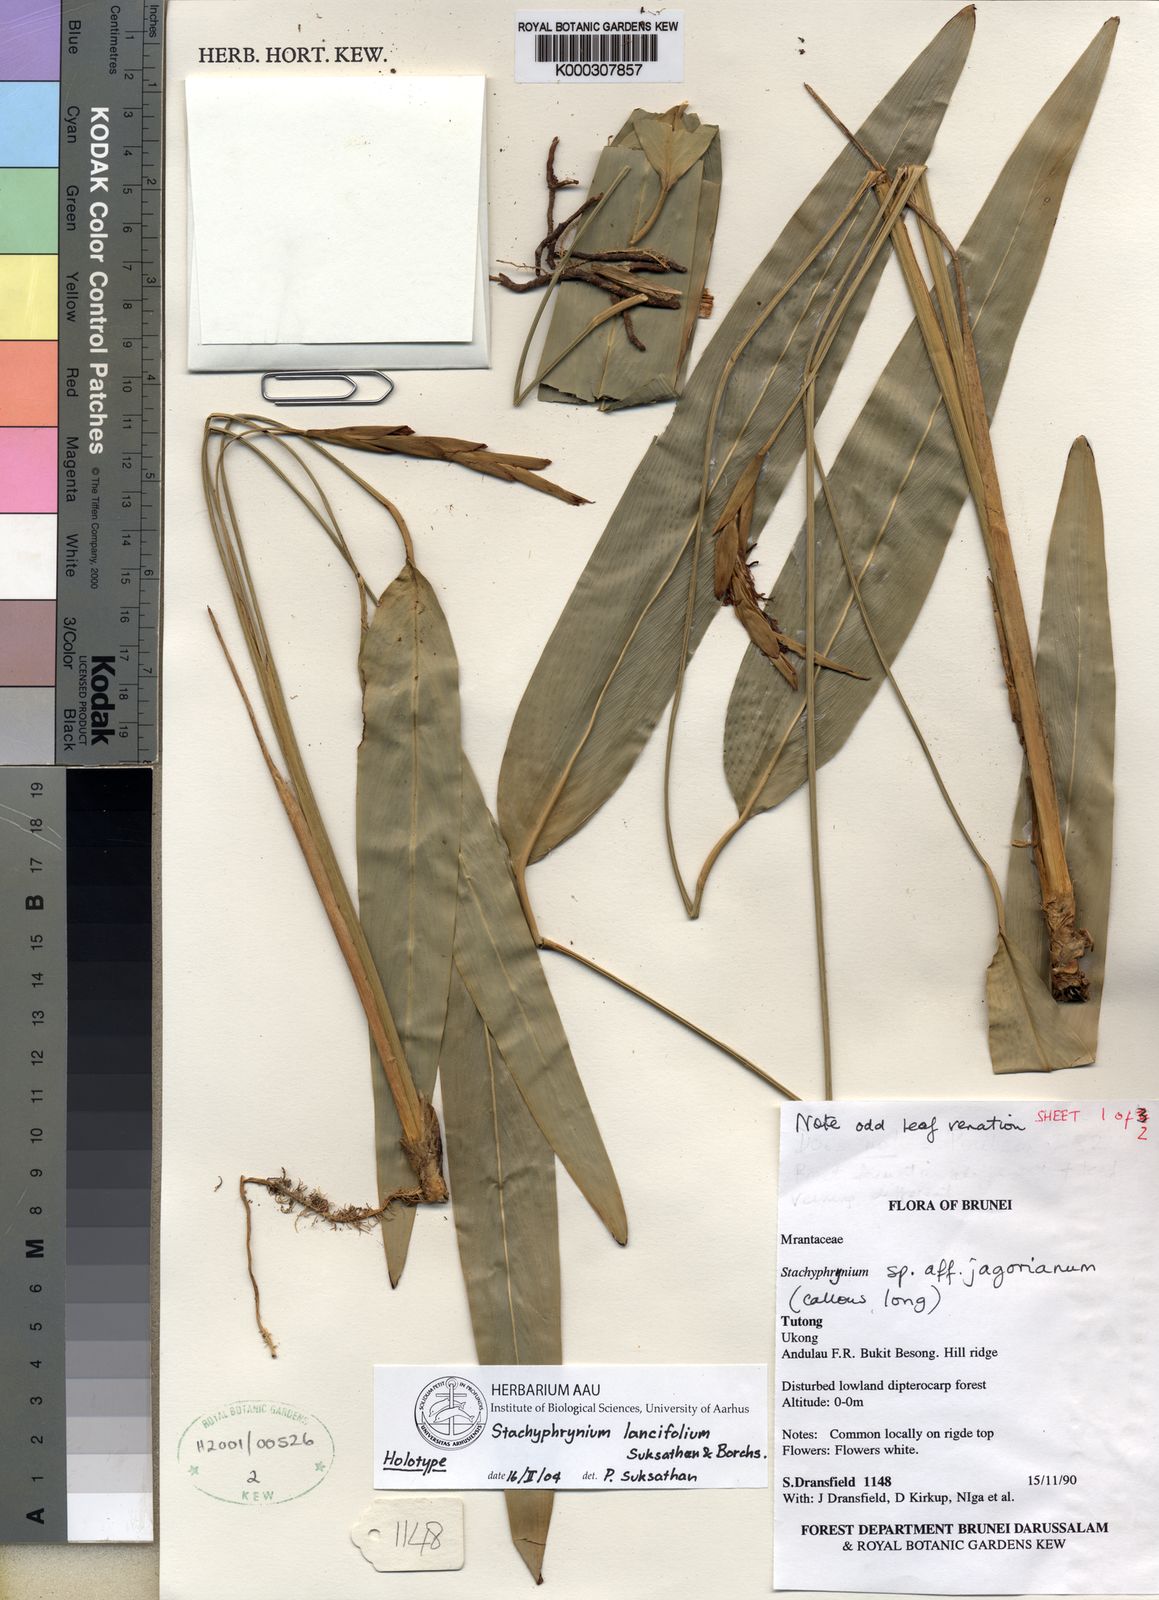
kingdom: Plantae
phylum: Tracheophyta
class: Liliopsida
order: Zingiberales
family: Marantaceae
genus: Stachyphrynium
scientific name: Stachyphrynium lancifolium
